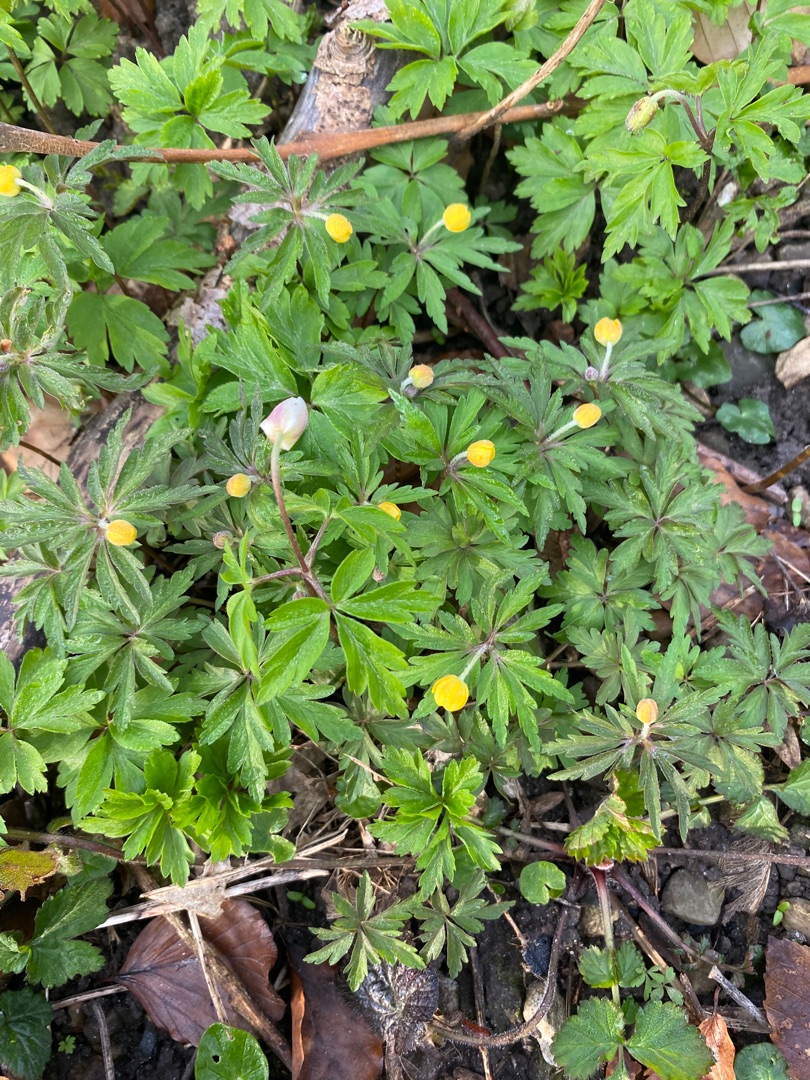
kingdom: Plantae
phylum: Tracheophyta
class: Magnoliopsida
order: Ranunculales
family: Ranunculaceae
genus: Anemone
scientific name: Anemone ranunculoides
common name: Gul anemone
